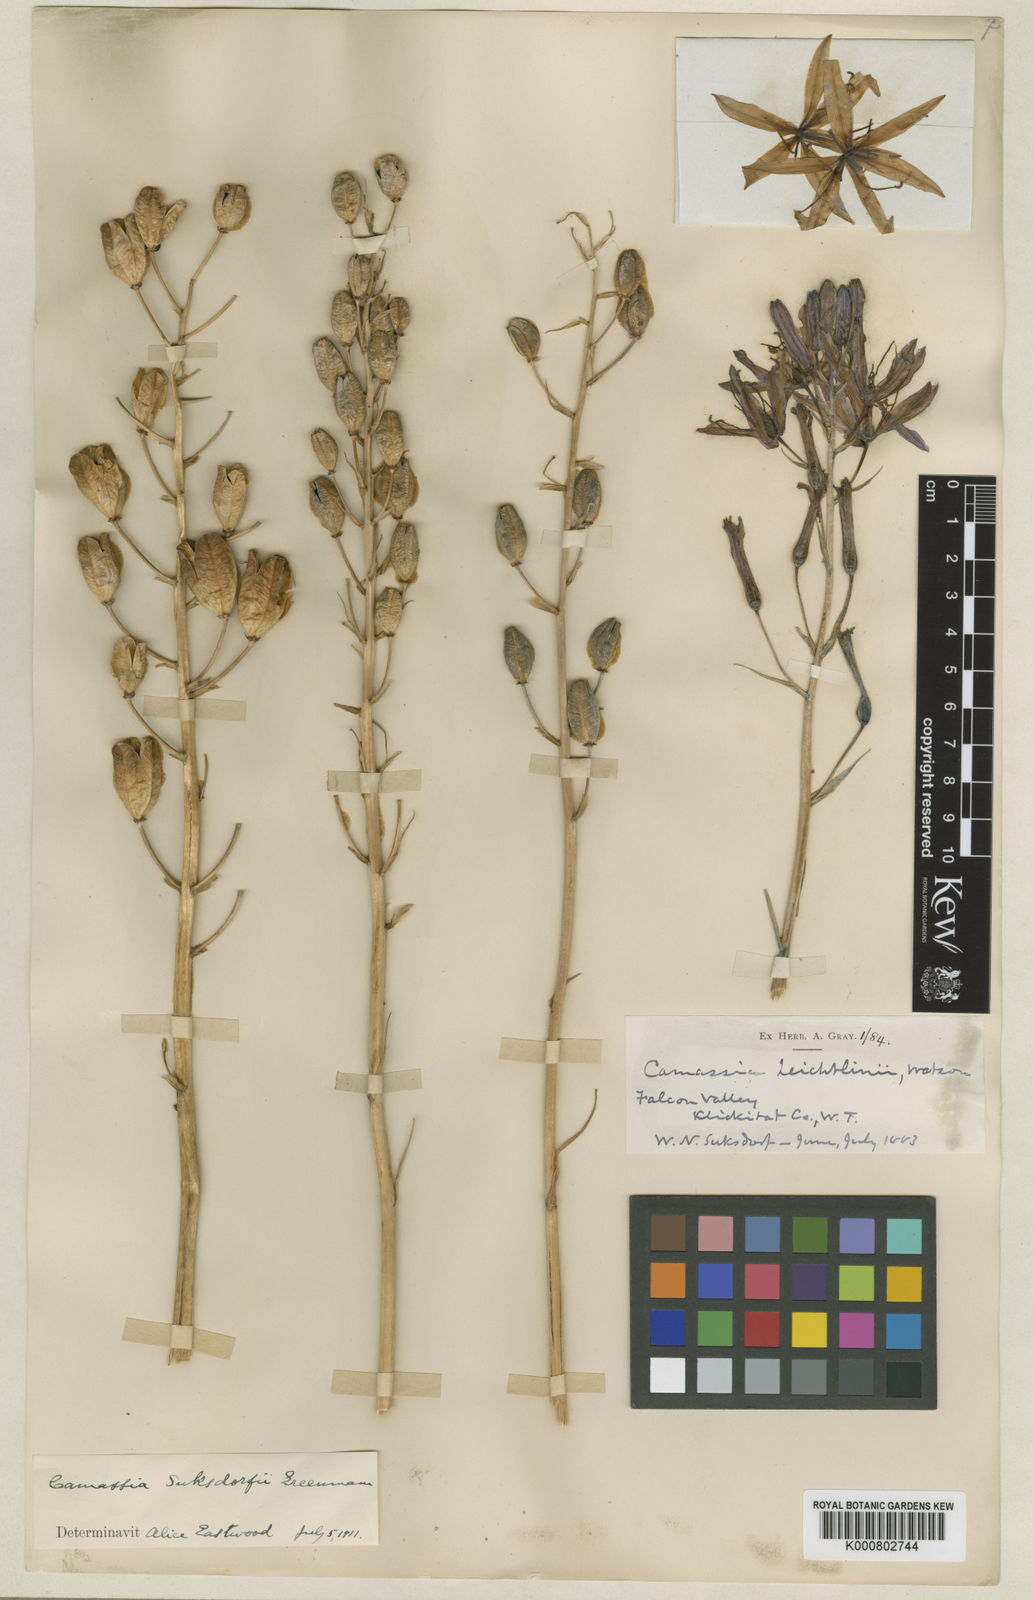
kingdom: Plantae
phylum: Tracheophyta
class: Liliopsida
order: Asparagales
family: Asparagaceae
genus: Camassia
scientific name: Camassia leichtlinii
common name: Leichtlin's camas
